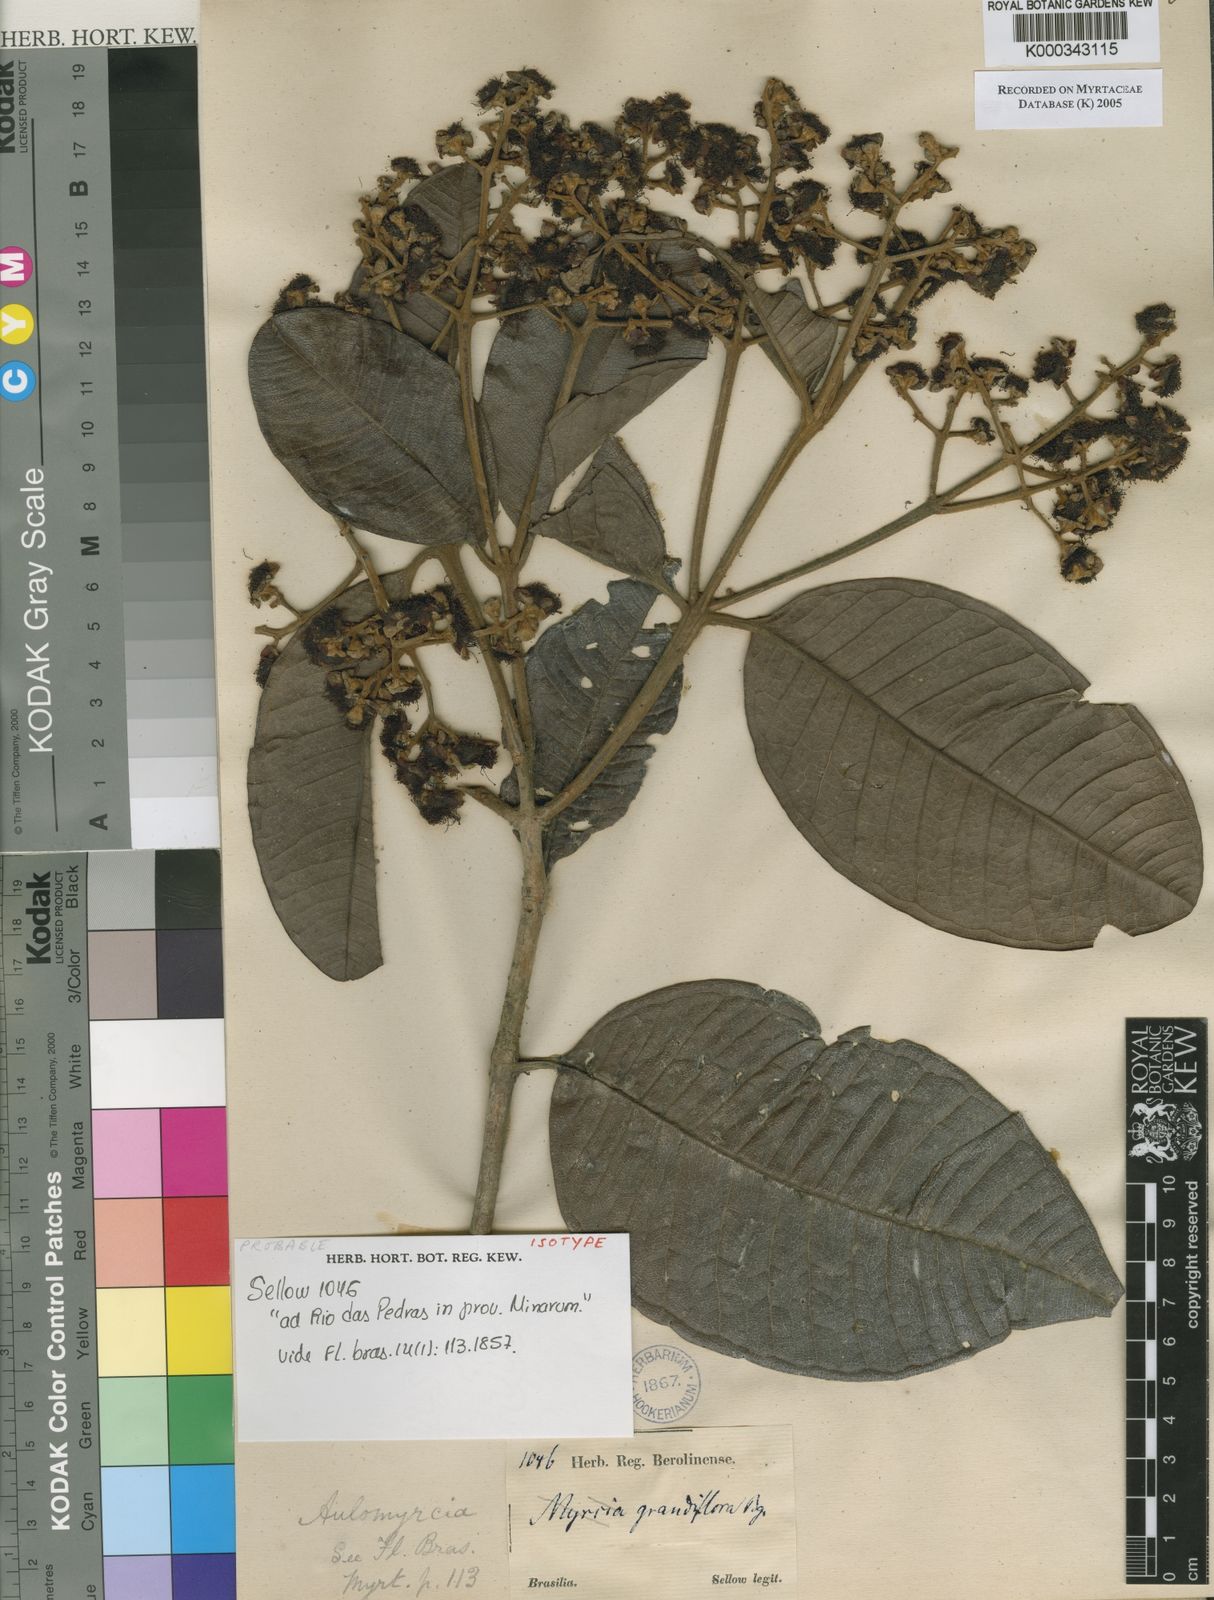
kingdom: Plantae
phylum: Tracheophyta
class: Magnoliopsida
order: Myrtales
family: Myrtaceae
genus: Myrcia
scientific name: Myrcia bathisiifolia
